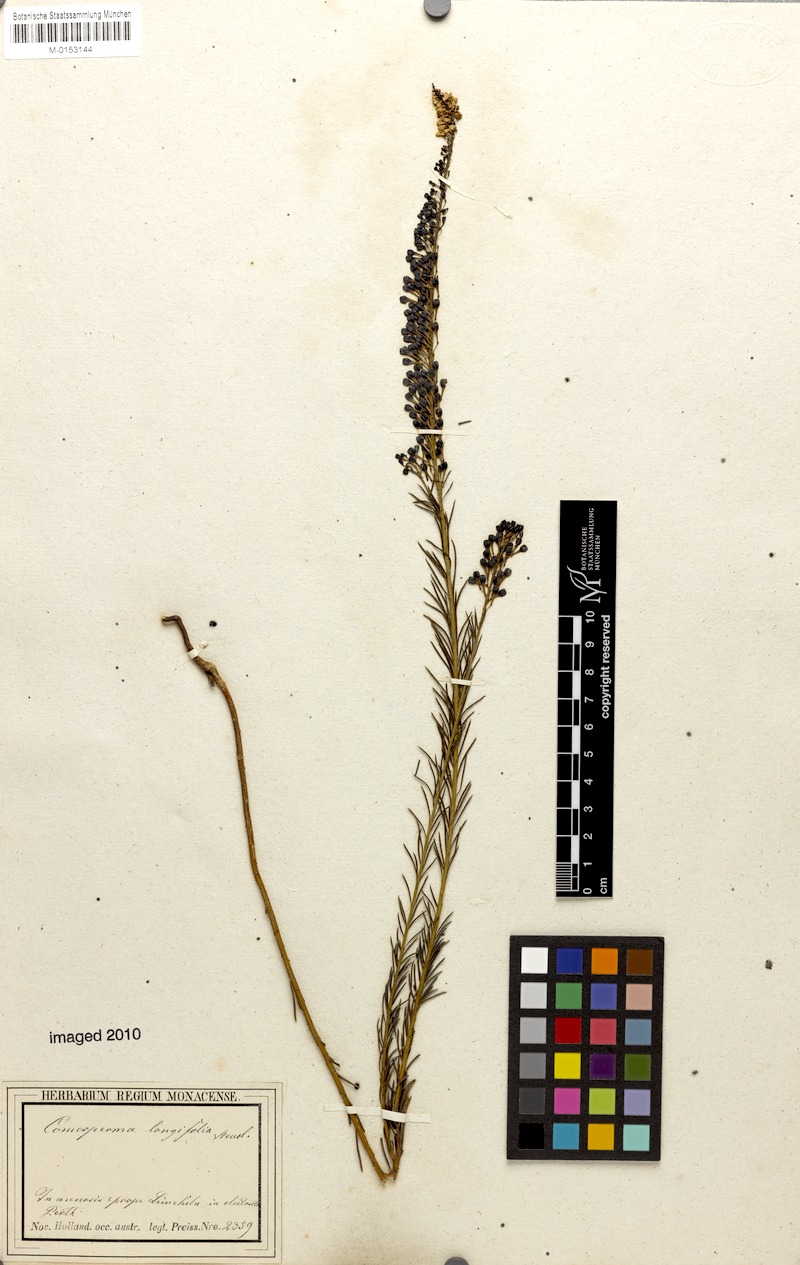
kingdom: Plantae
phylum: Tracheophyta
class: Magnoliopsida
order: Fabales
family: Polygalaceae
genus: Comesperma
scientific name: Comesperma confertum
